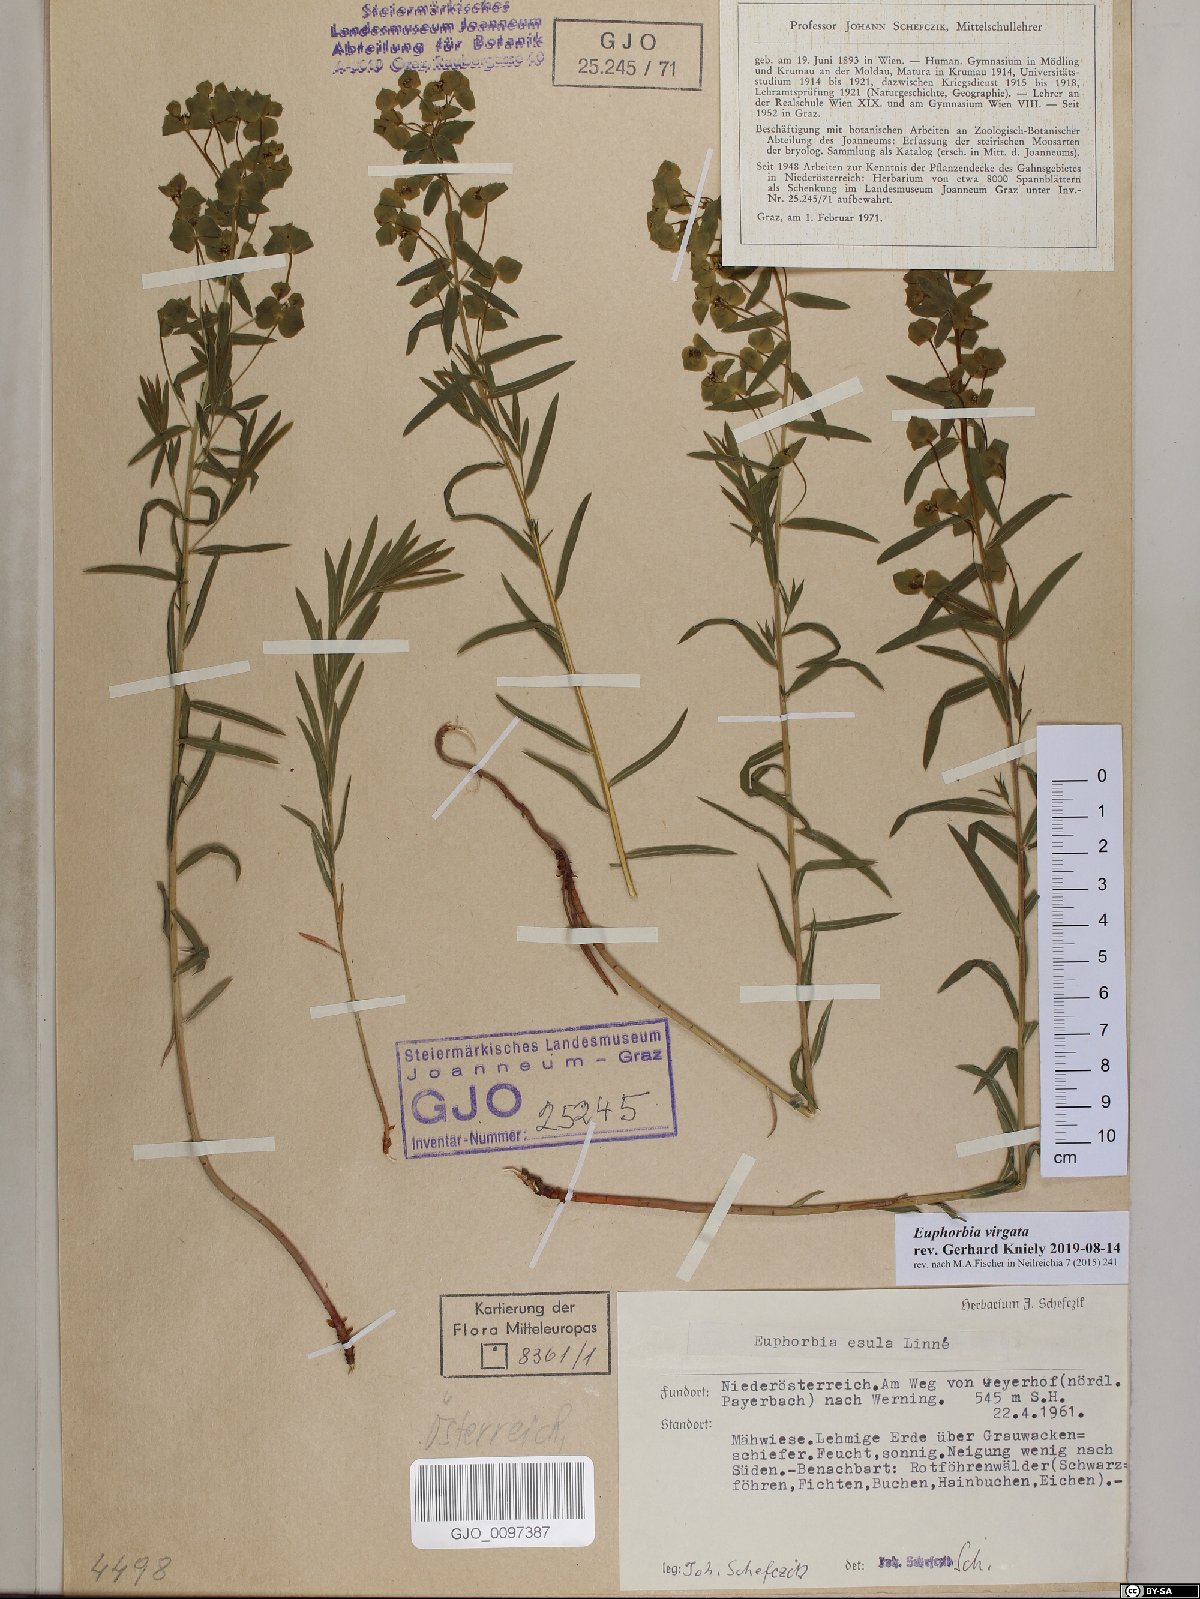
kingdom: Plantae
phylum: Tracheophyta
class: Magnoliopsida
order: Malpighiales
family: Euphorbiaceae
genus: Euphorbia
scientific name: Euphorbia virgata
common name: Leafy spurge
